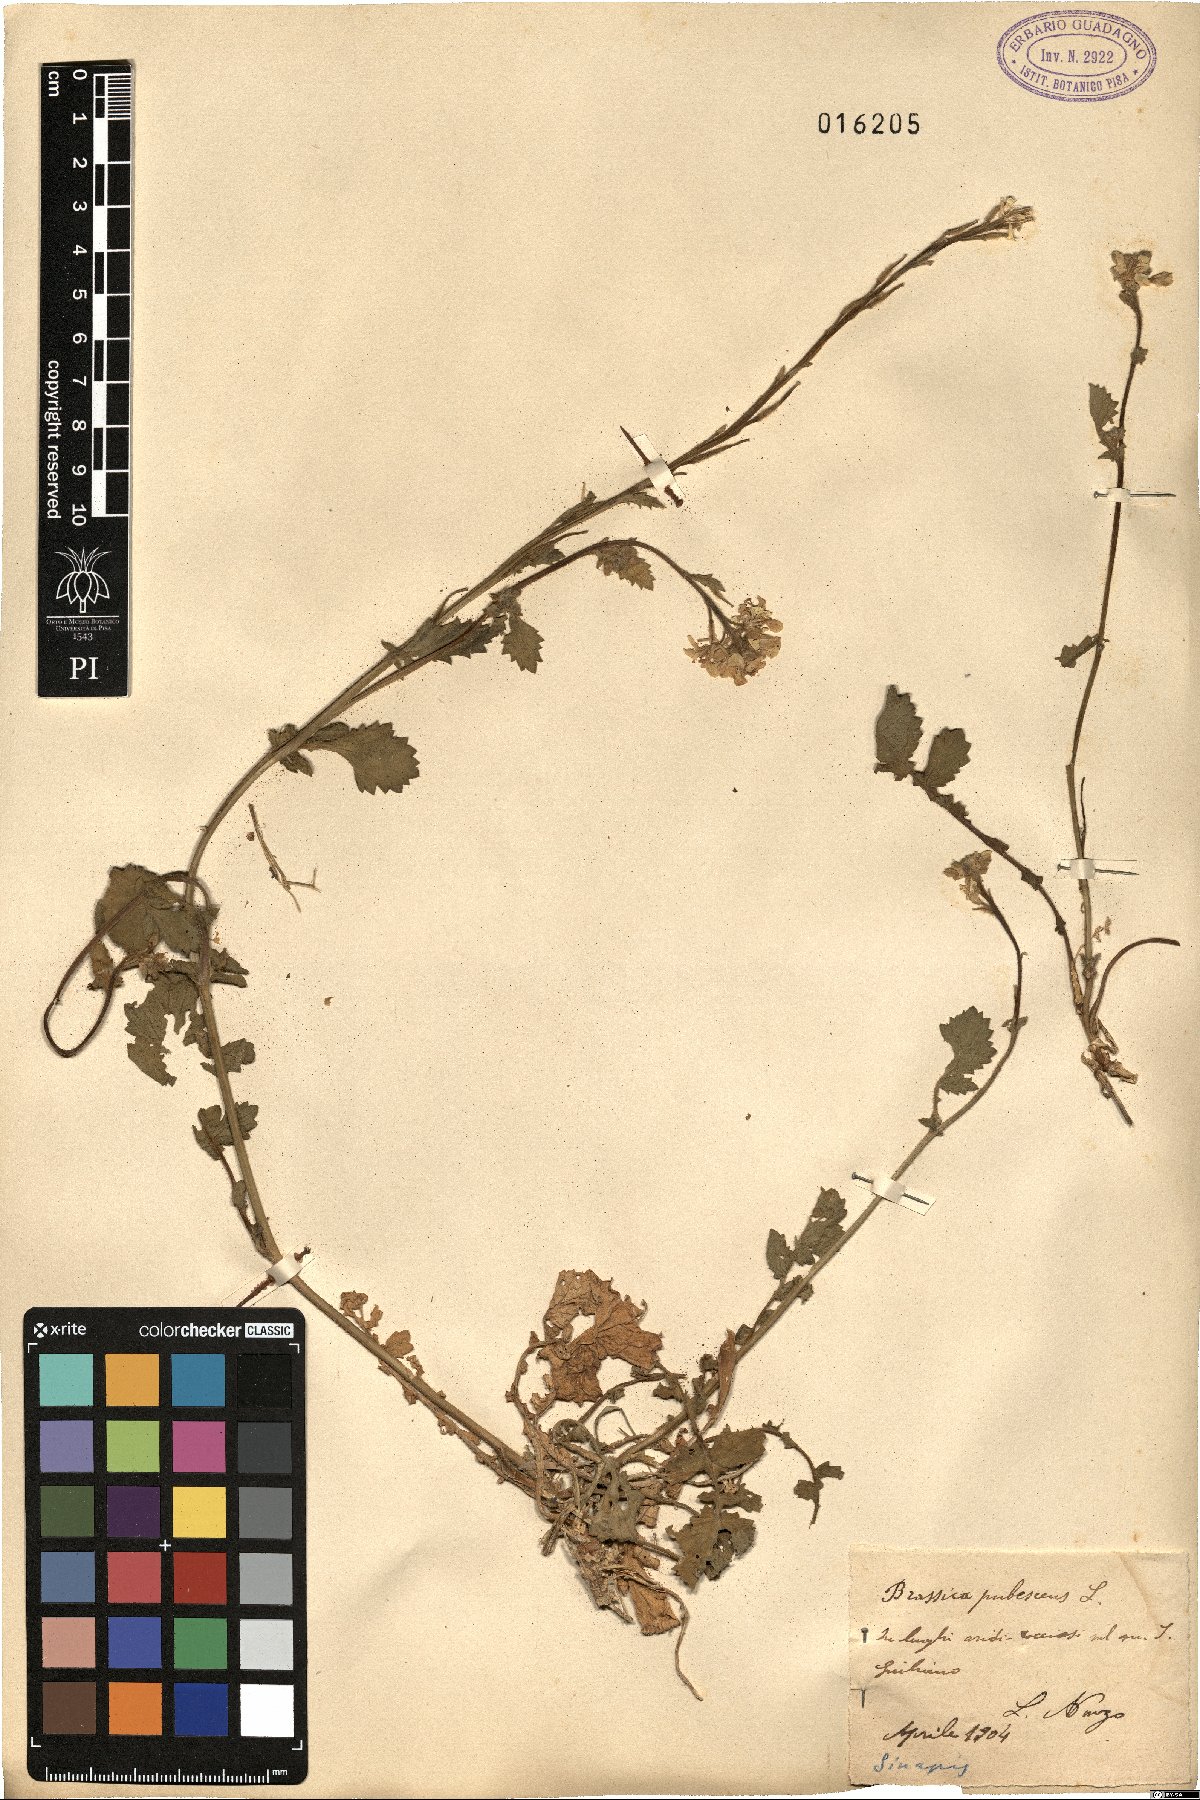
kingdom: Plantae
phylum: Tracheophyta
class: Magnoliopsida
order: Brassicales
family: Brassicaceae
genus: Sinapis
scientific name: Sinapis pubescens
